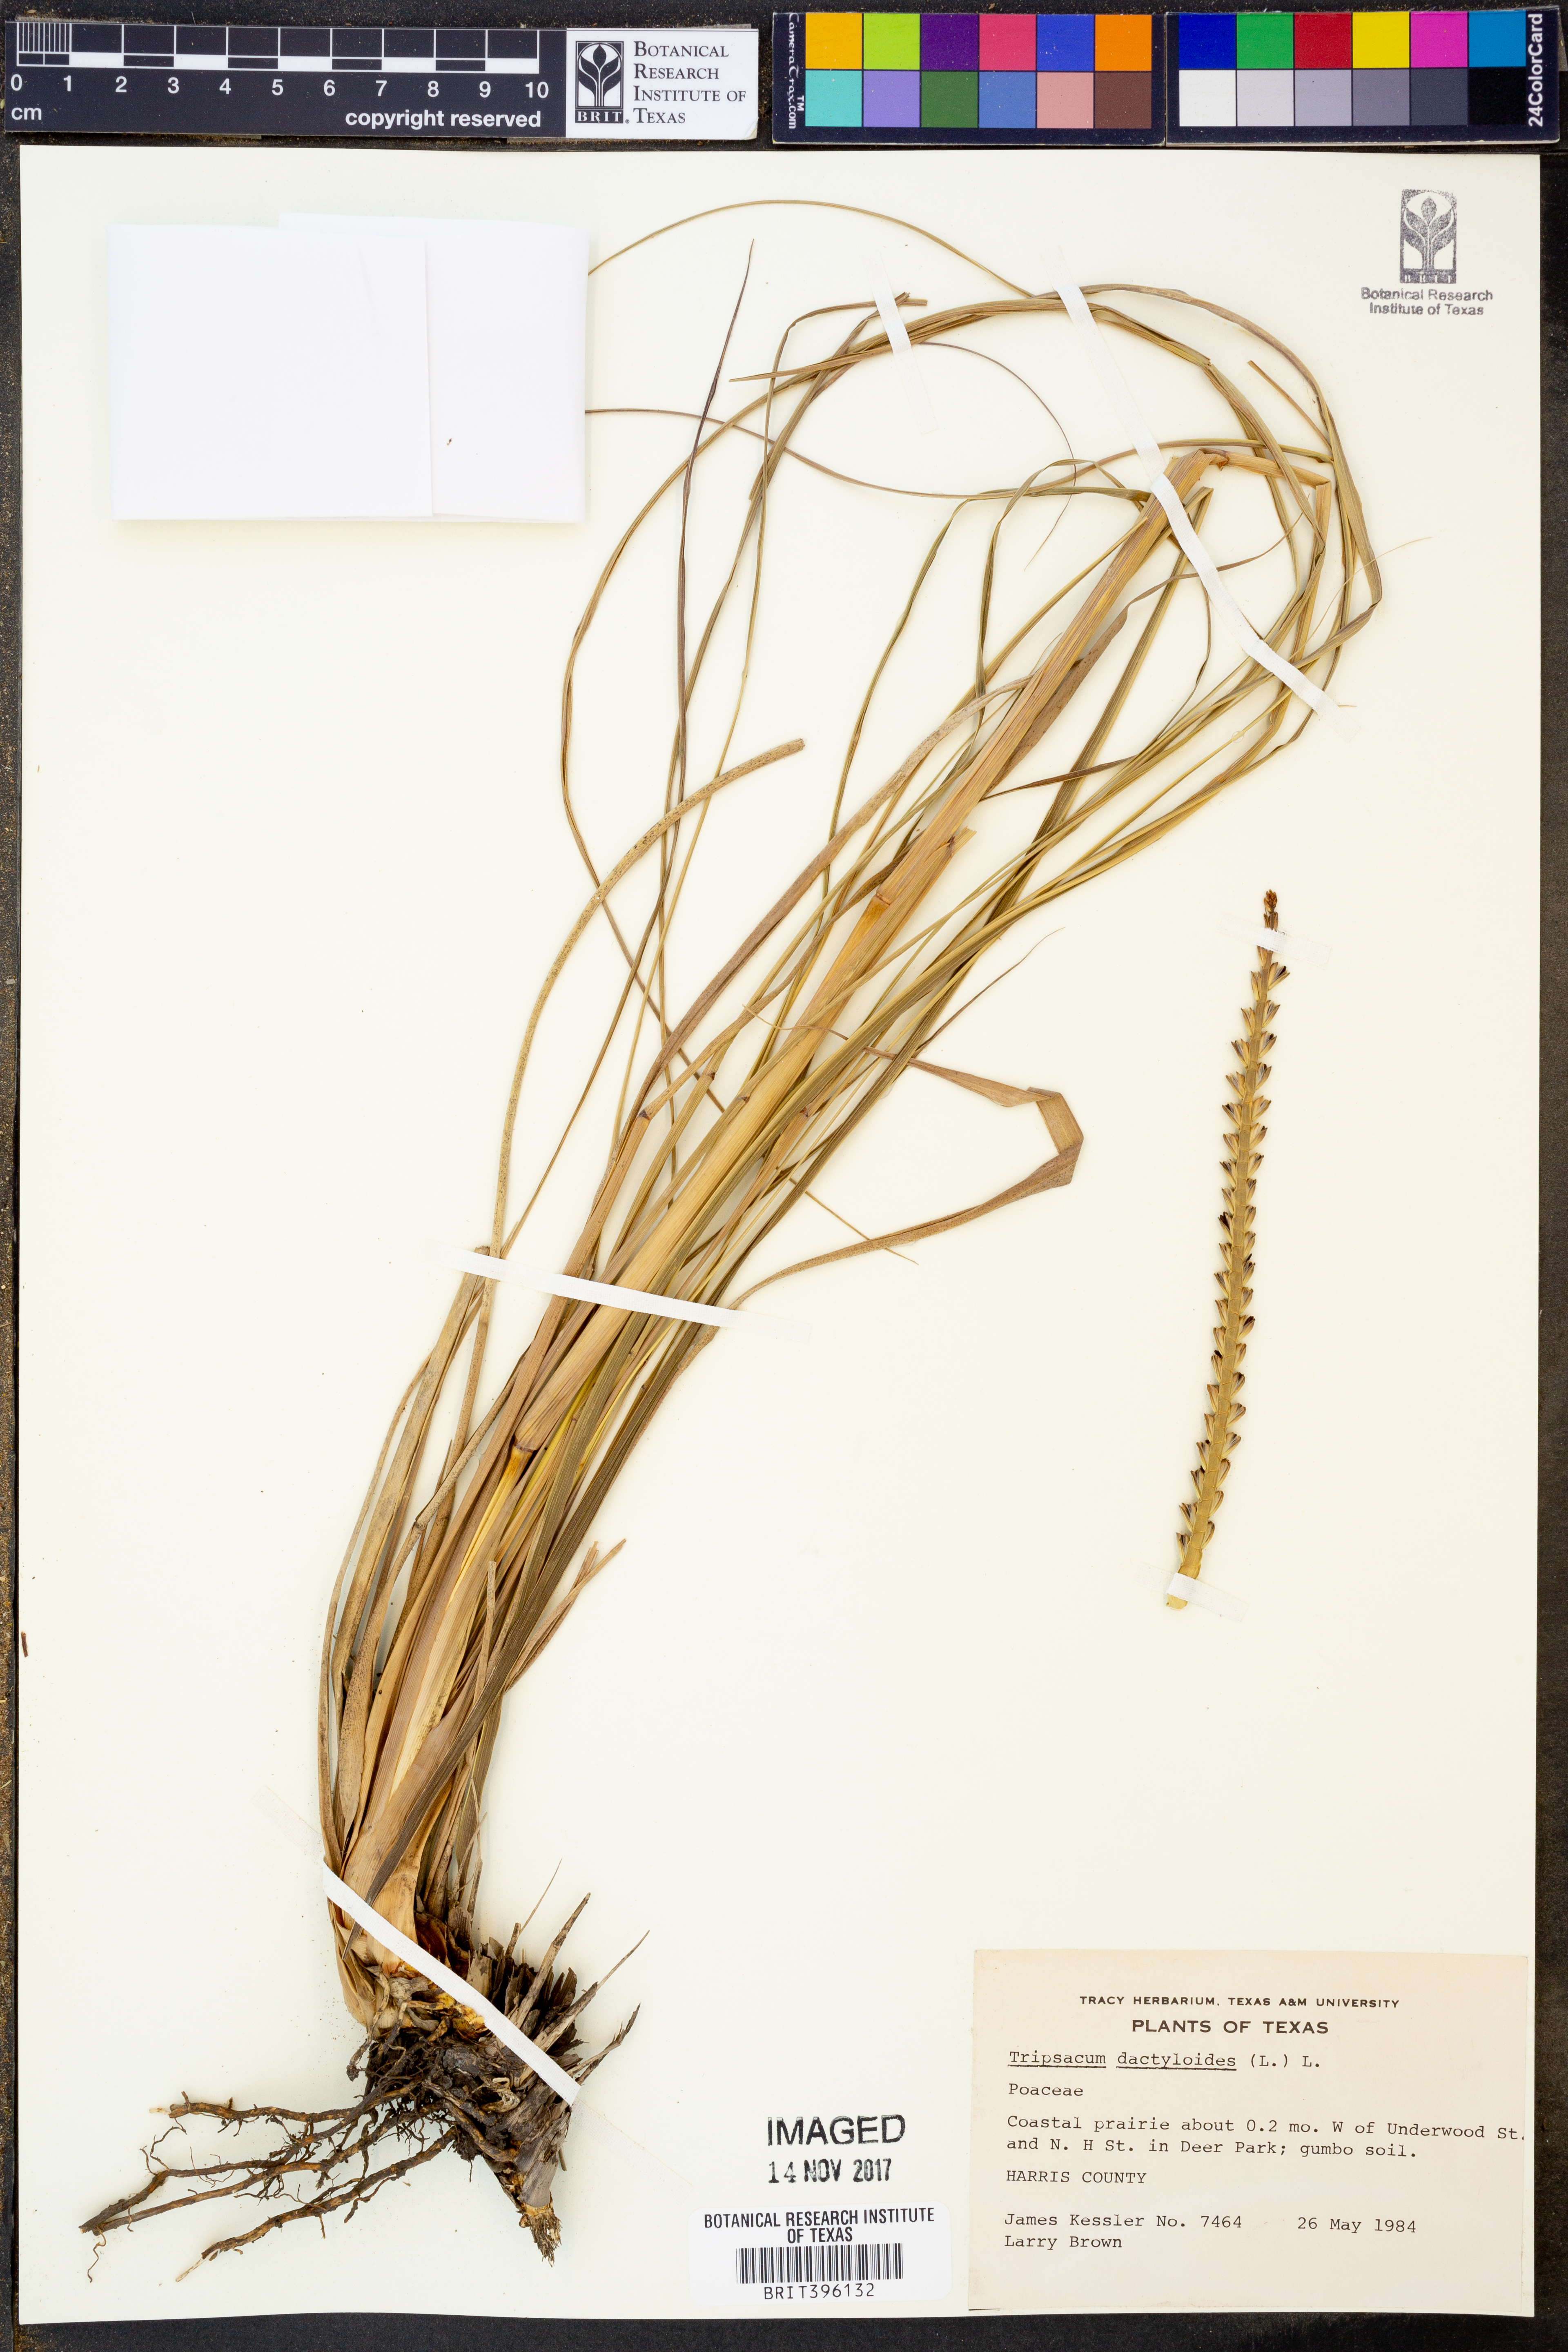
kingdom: Plantae
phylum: Tracheophyta
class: Liliopsida
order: Poales
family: Poaceae
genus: Tripsacum
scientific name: Tripsacum dactyloides
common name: Buffalo-grass
